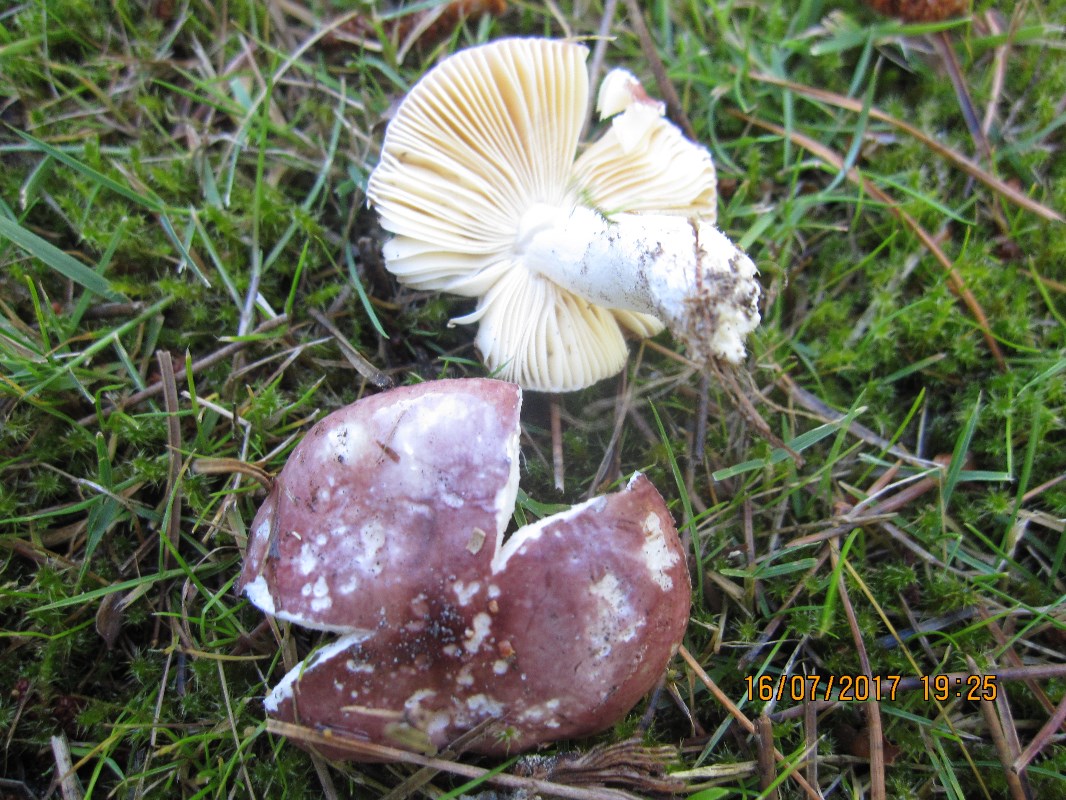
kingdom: Fungi
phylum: Basidiomycota
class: Agaricomycetes
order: Russulales
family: Russulaceae
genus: Russula
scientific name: Russula cessans
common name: fyrre-skørhat
